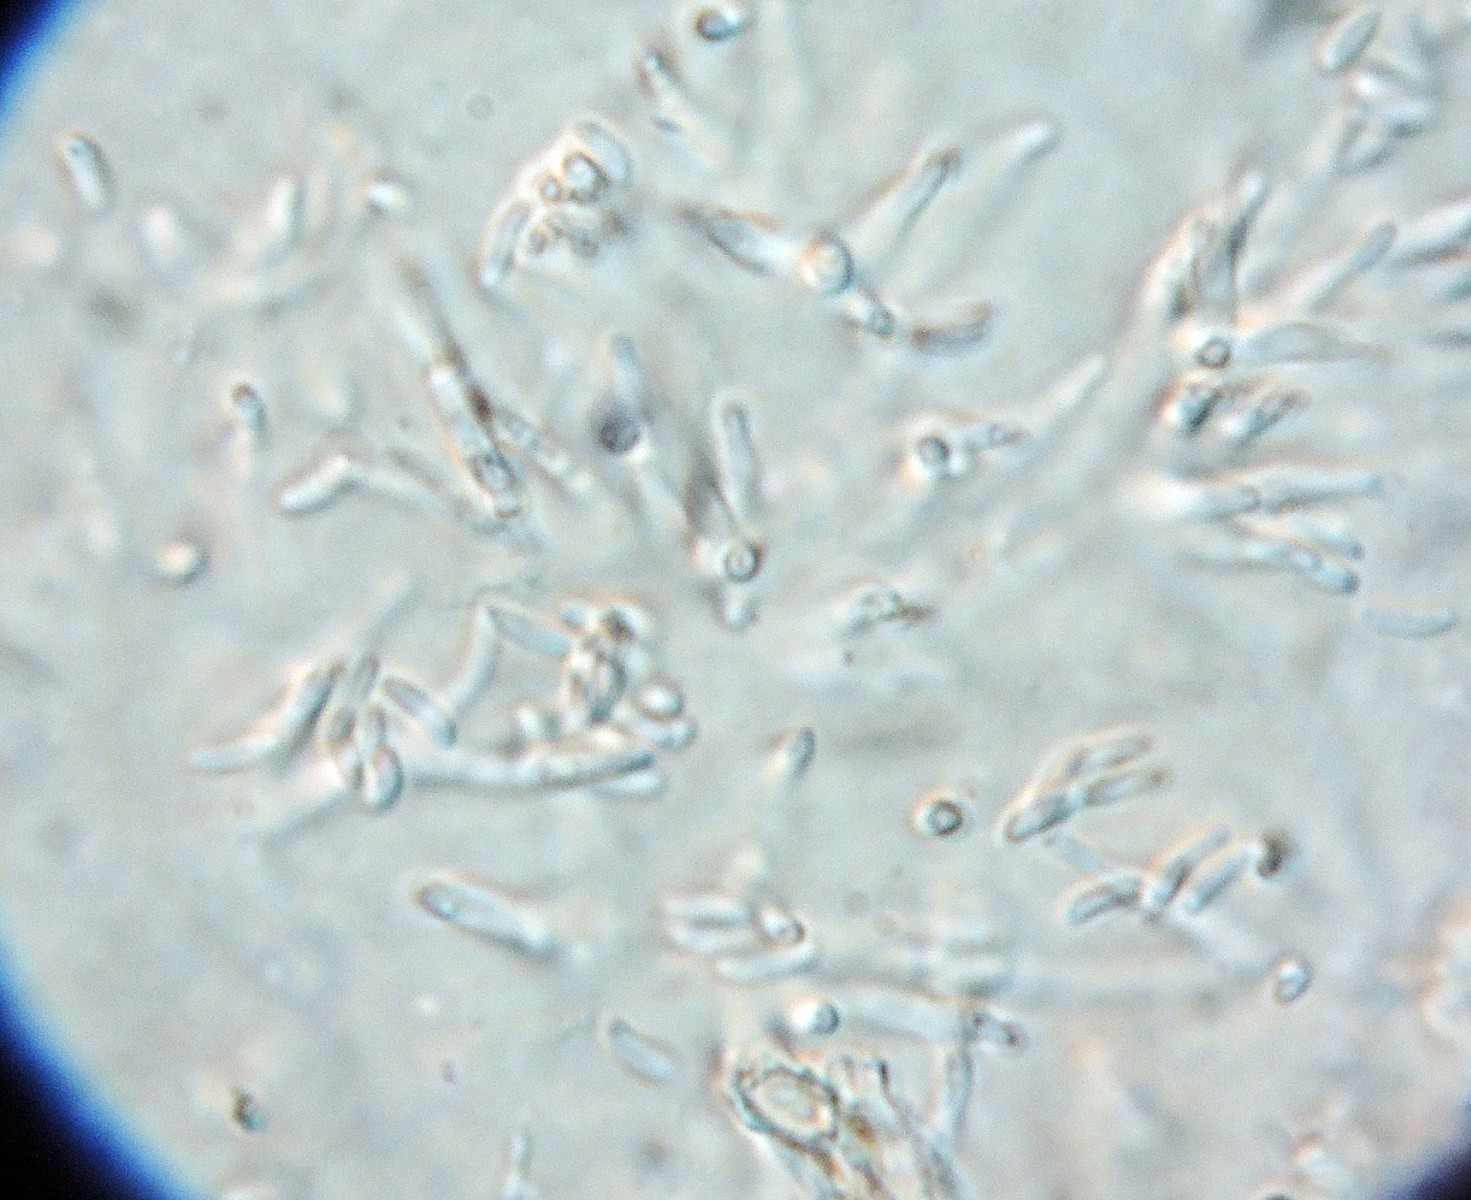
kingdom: Fungi
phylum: Ascomycota
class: Sordariomycetes
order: Diaporthales
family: Valsaceae
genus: Cytospora
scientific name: Cytospora intermedia
